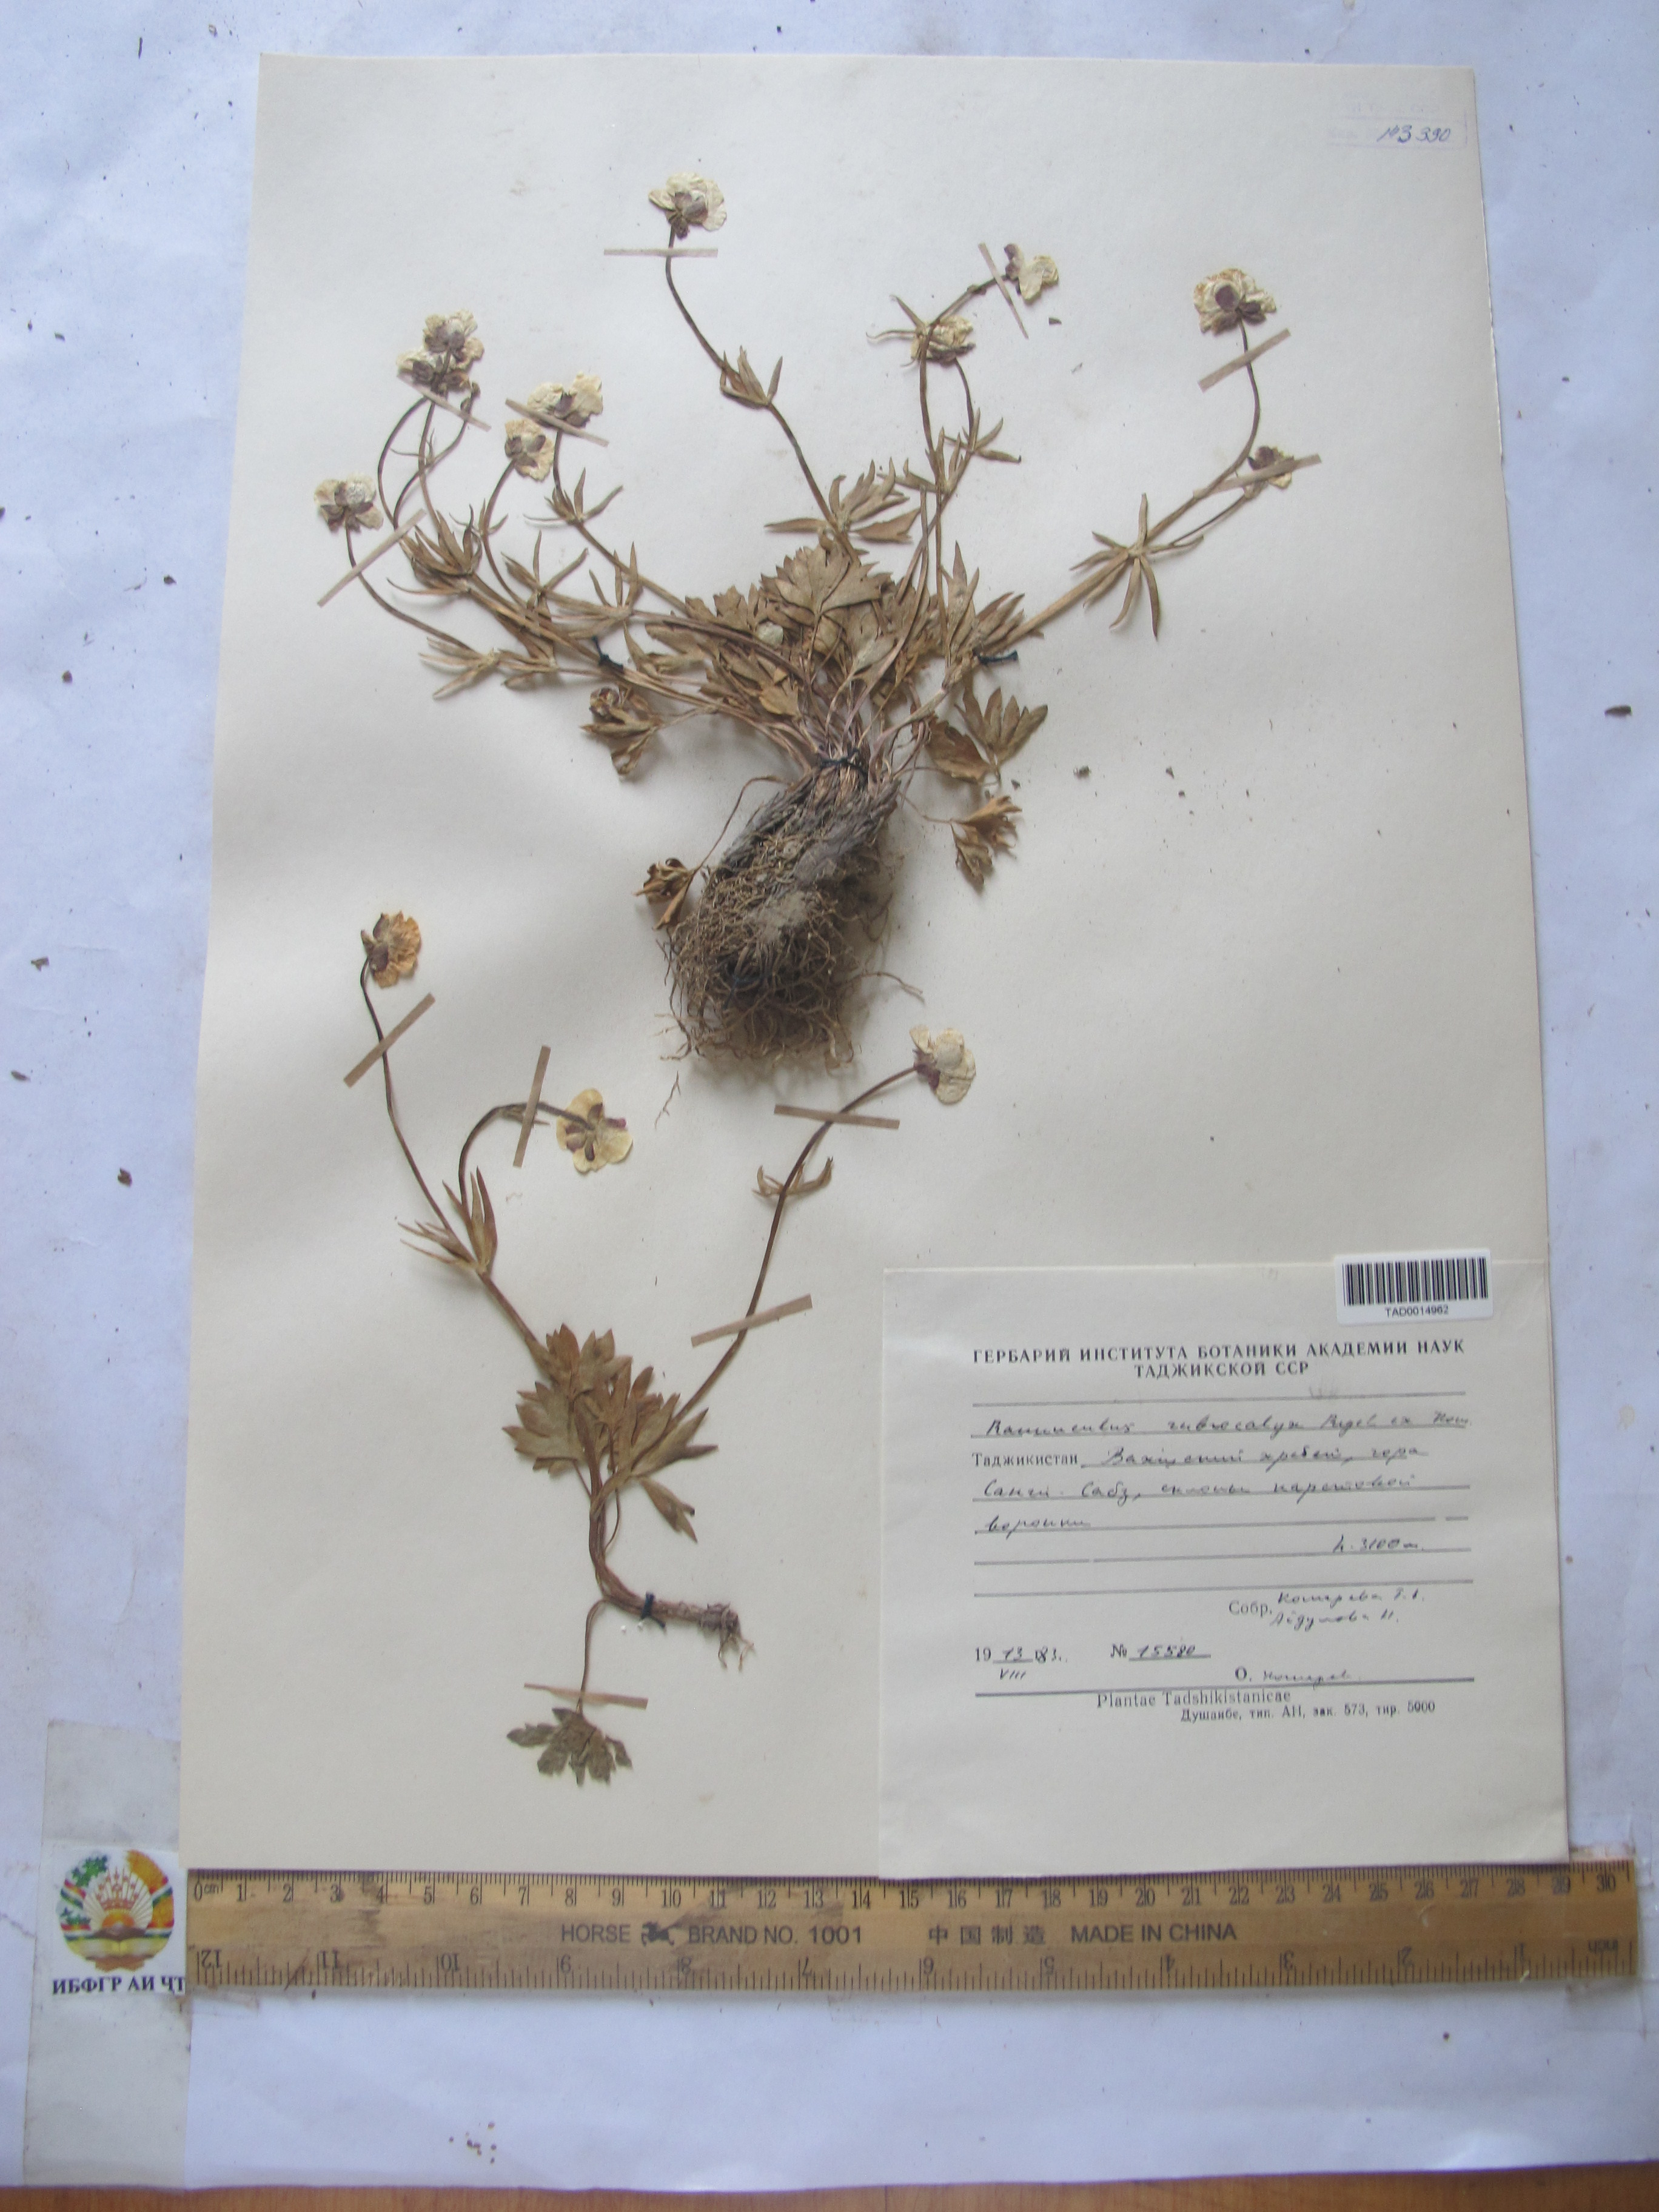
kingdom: Plantae
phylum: Tracheophyta
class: Magnoliopsida
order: Ranunculales
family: Ranunculaceae
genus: Ranunculus
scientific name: Ranunculus rubrocalyx
